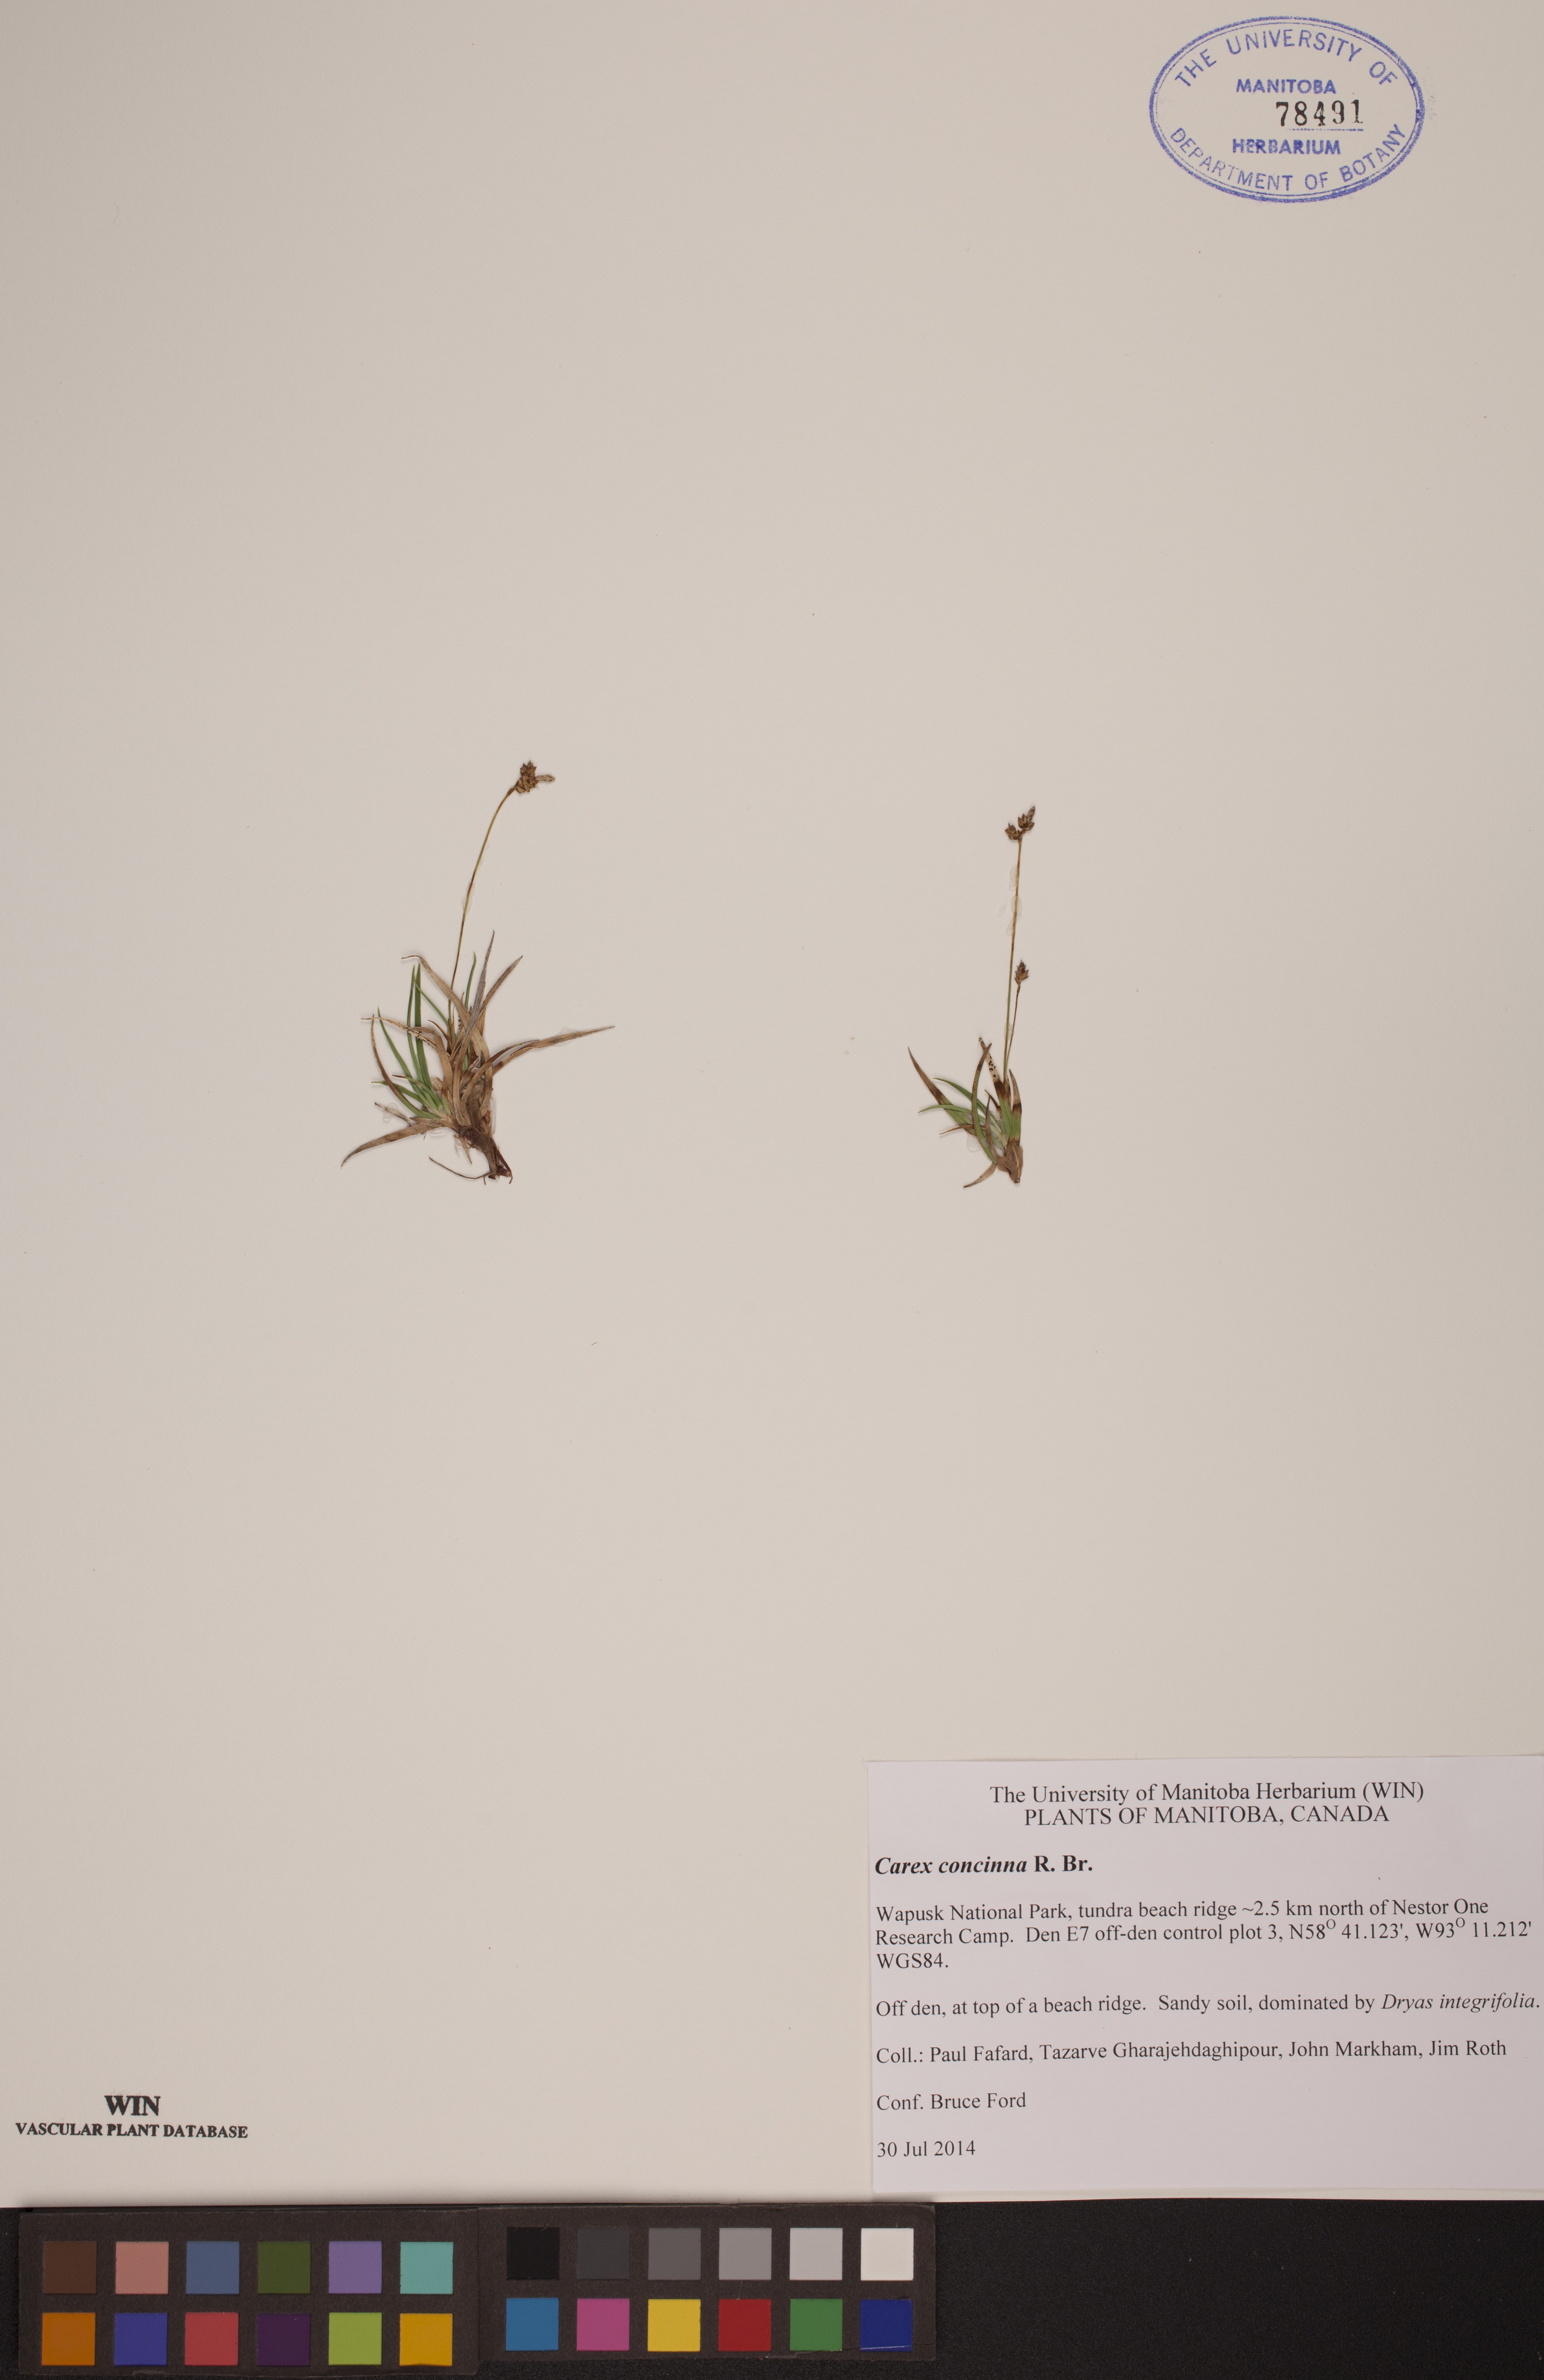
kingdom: Plantae
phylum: Tracheophyta
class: Liliopsida
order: Poales
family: Cyperaceae
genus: Carex
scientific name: Carex concinna
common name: Beautiful sedge
